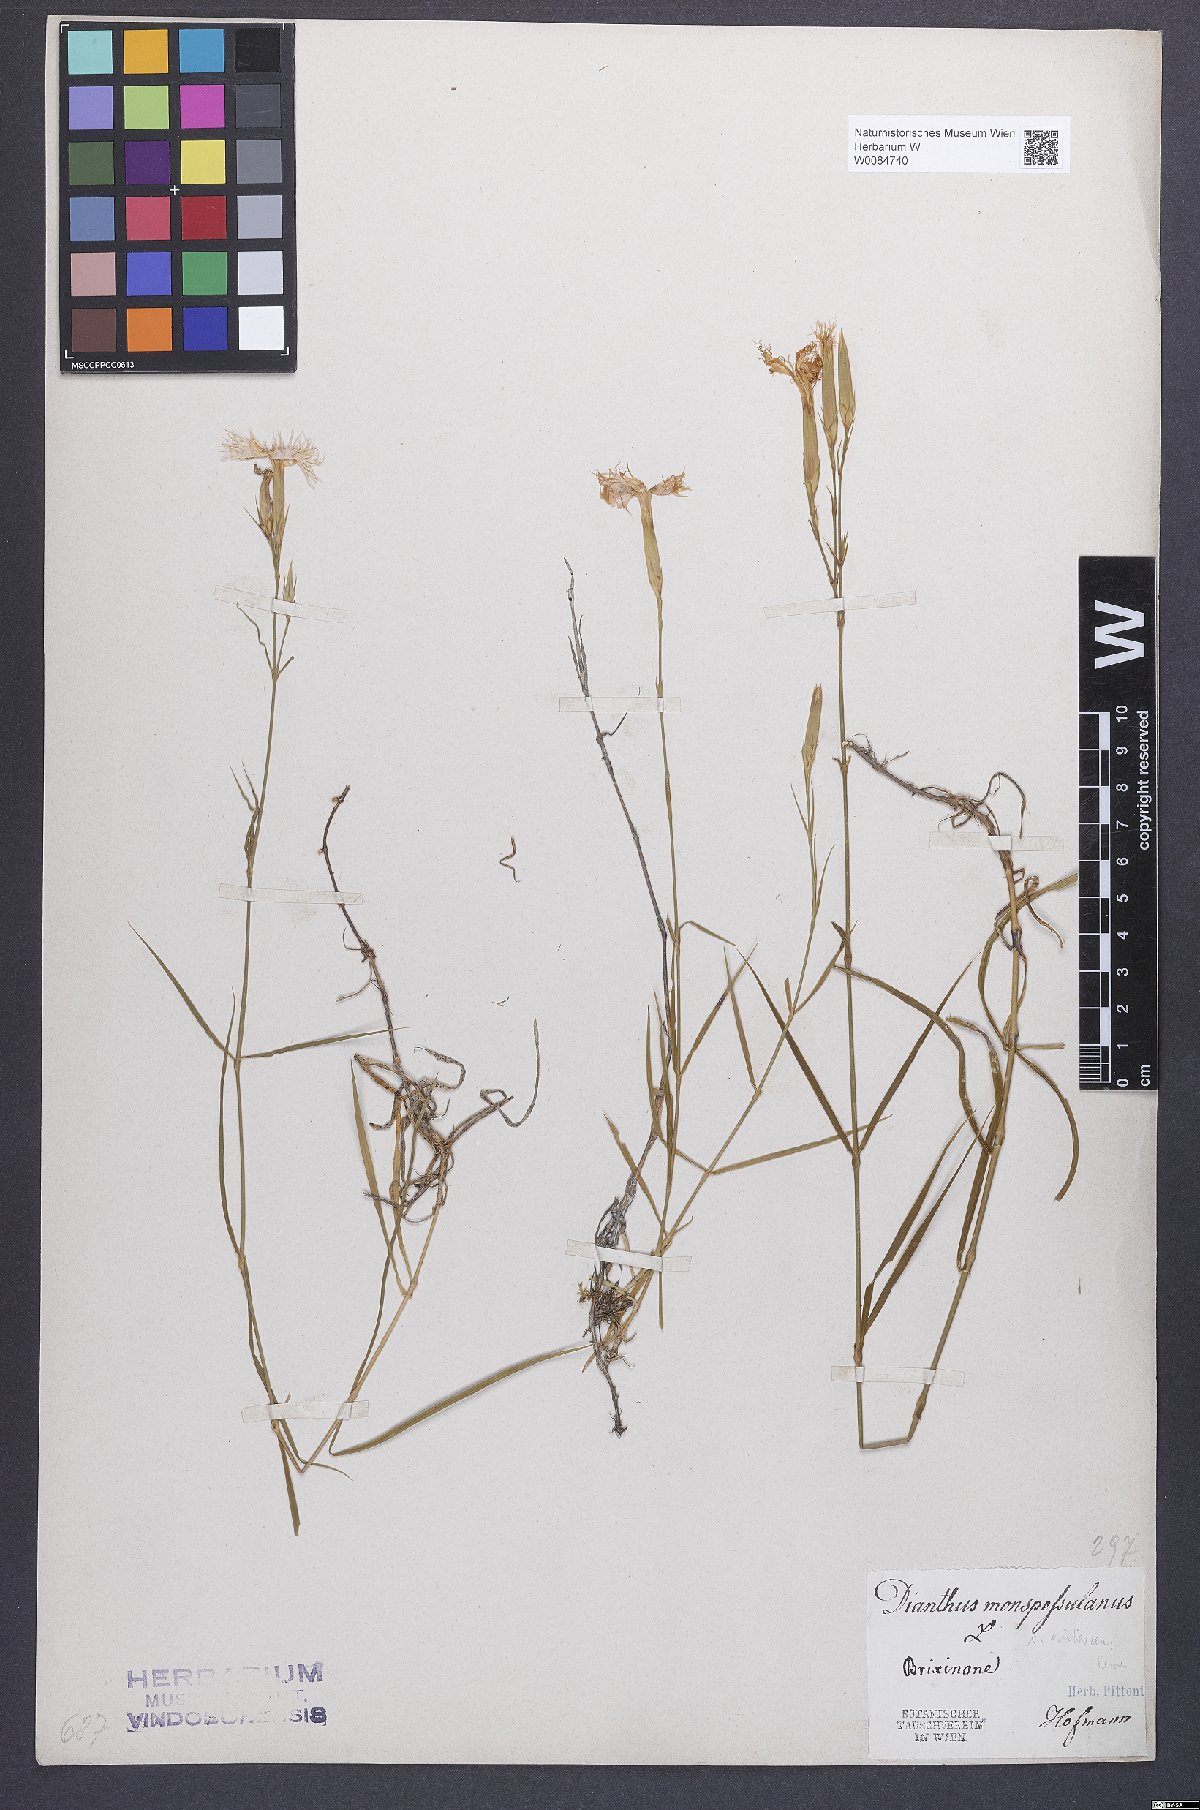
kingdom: Plantae
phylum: Tracheophyta
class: Magnoliopsida
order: Caryophyllales
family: Caryophyllaceae
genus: Dianthus
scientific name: Dianthus hyssopifolius
